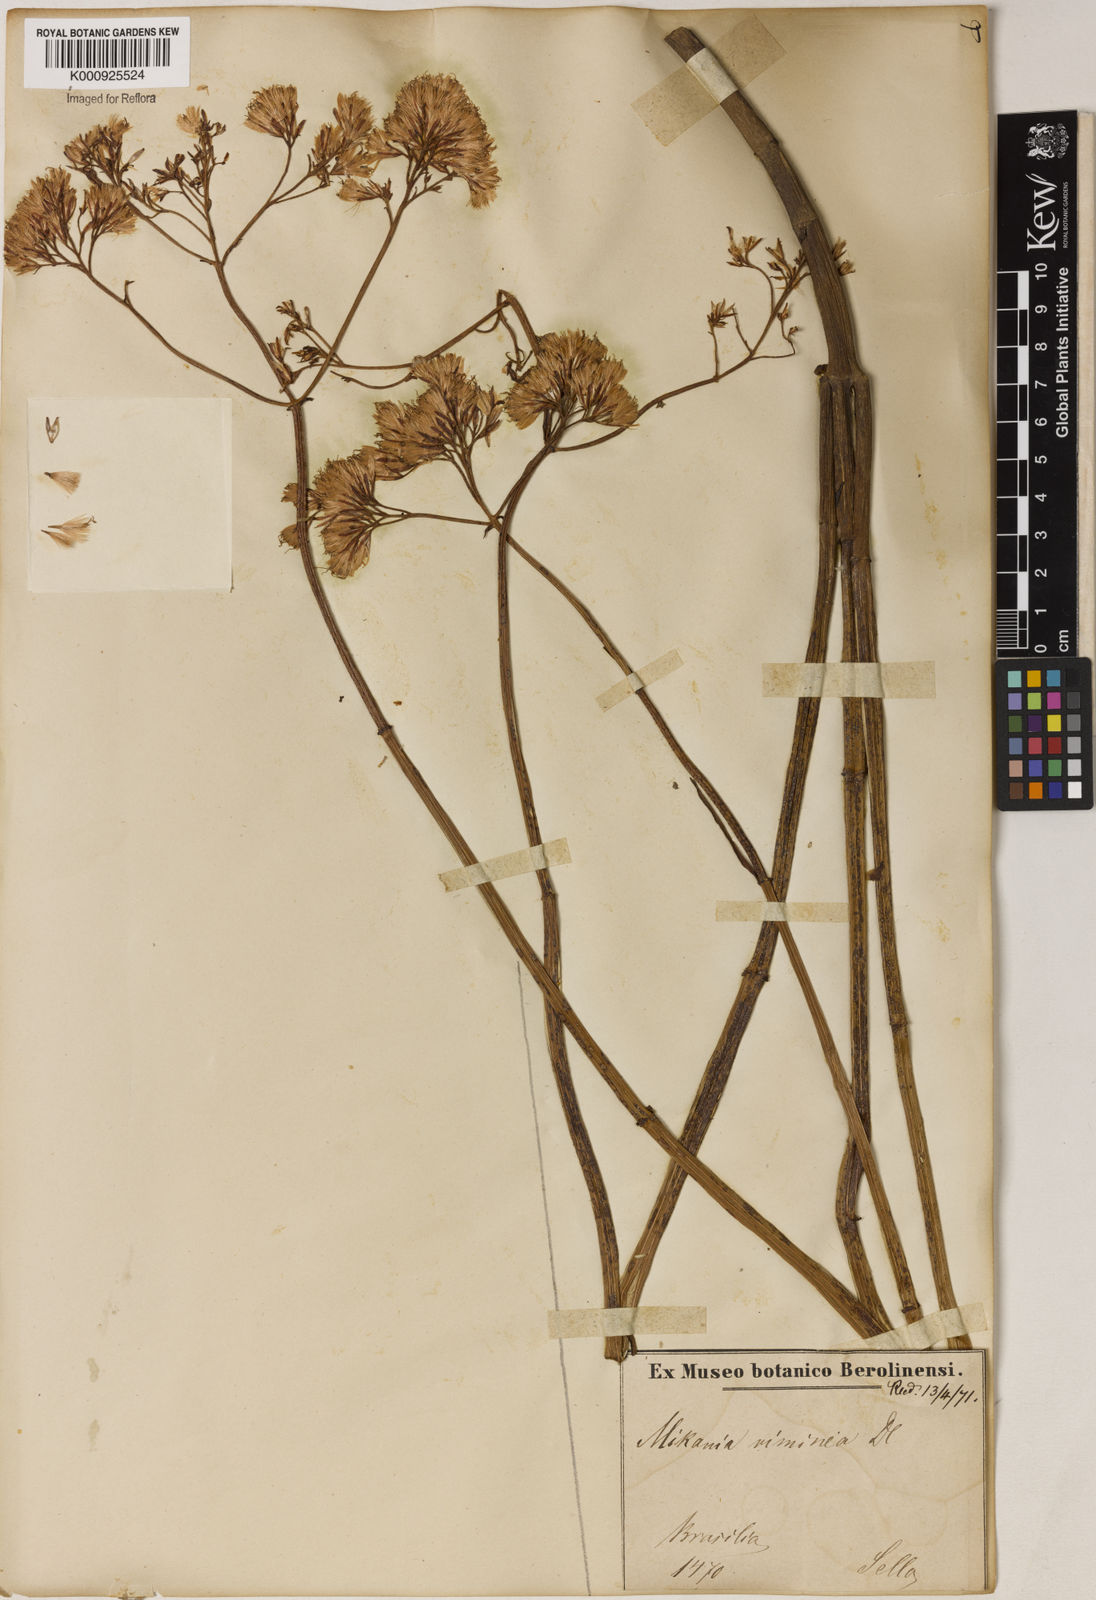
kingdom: Plantae
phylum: Tracheophyta
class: Magnoliopsida
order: Asterales
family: Asteraceae
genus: Mikania
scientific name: Mikania viminea
